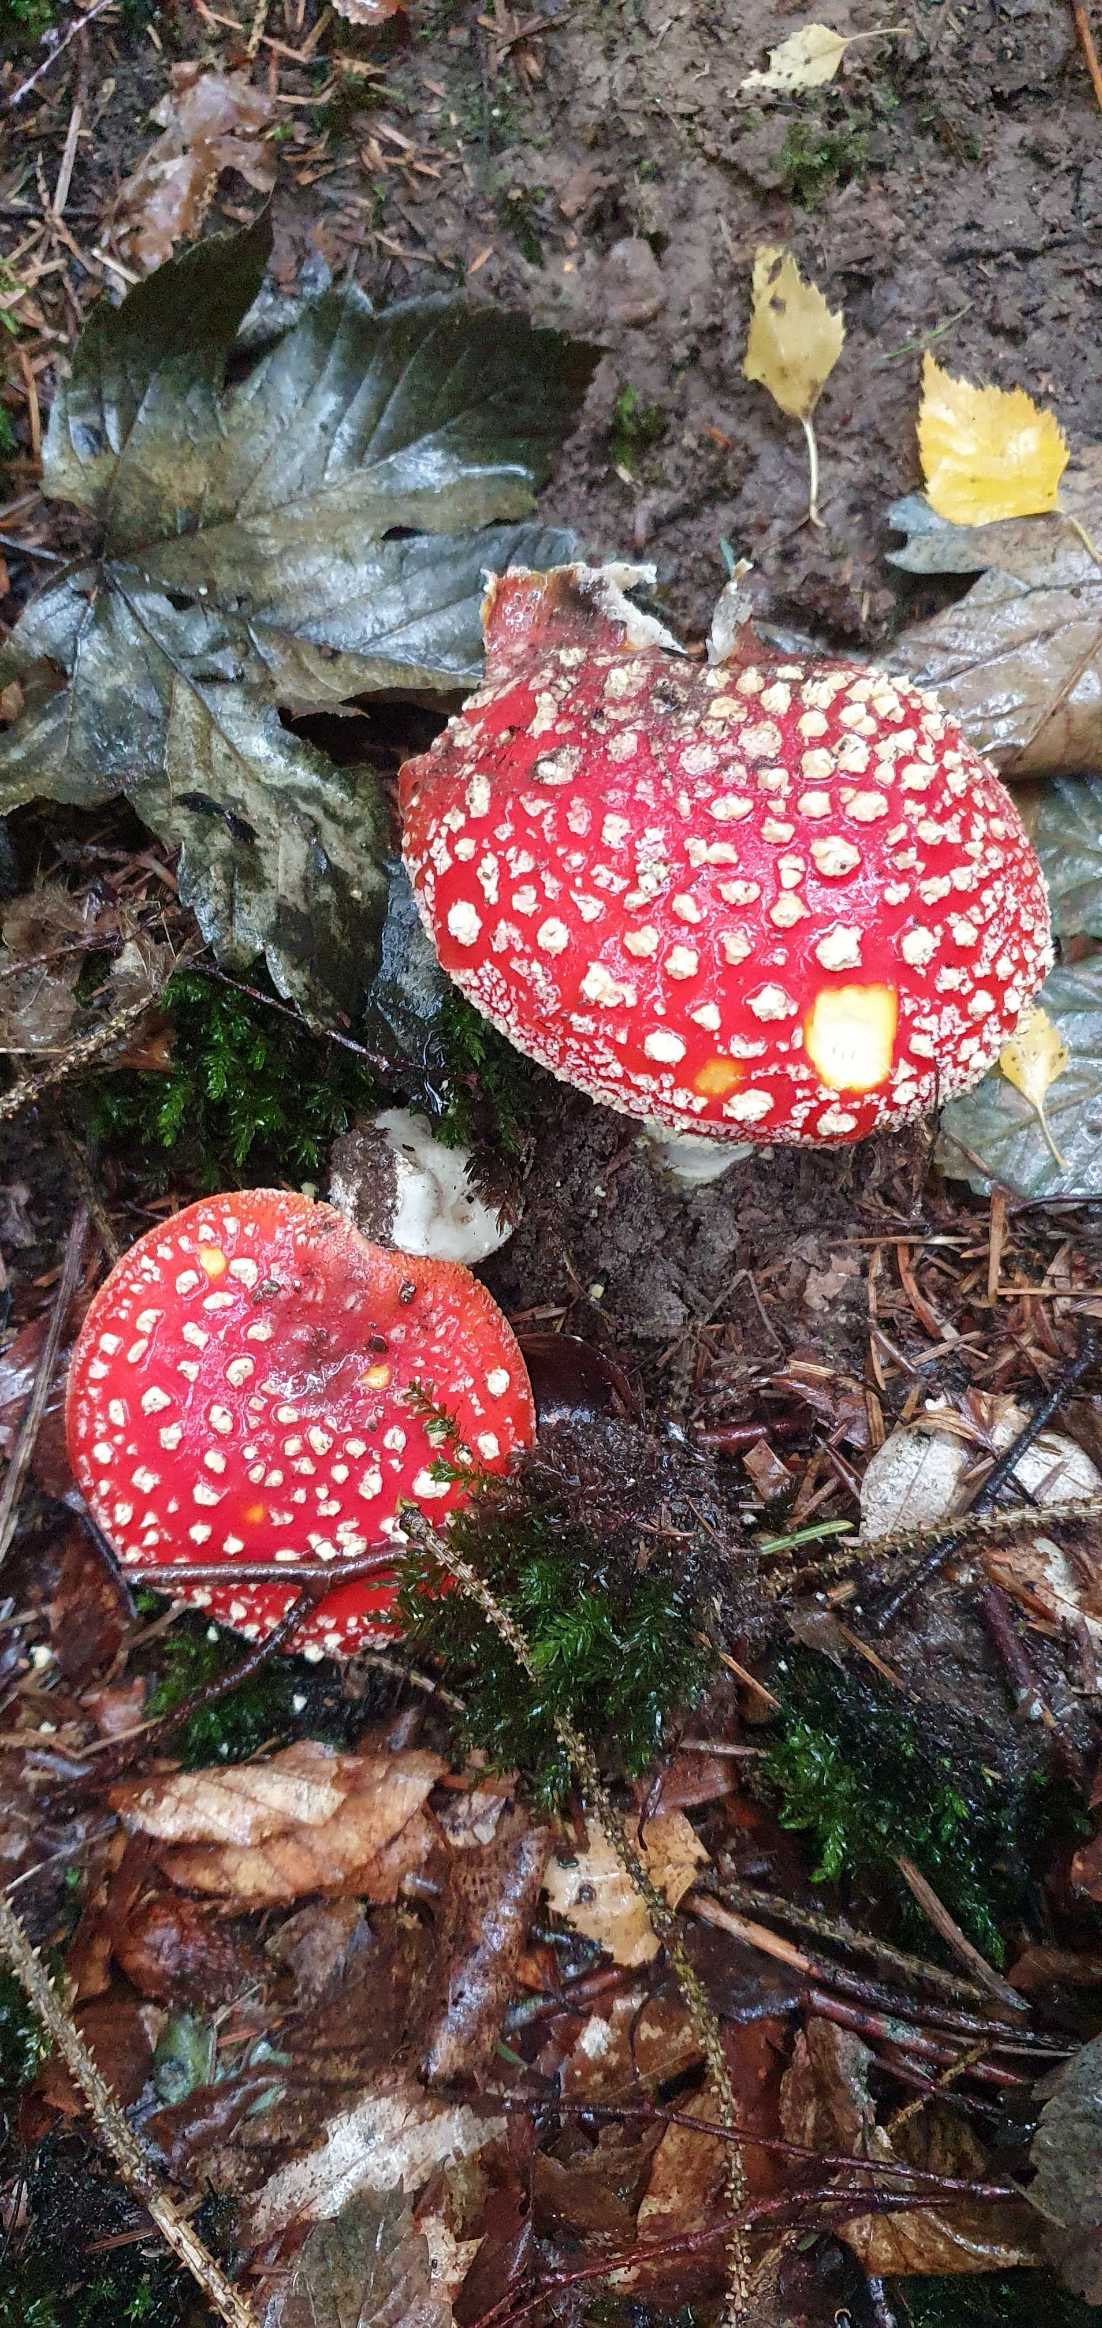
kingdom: Fungi
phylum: Basidiomycota
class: Agaricomycetes
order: Agaricales
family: Amanitaceae
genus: Amanita
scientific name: Amanita muscaria
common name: Rød fluesvamp
